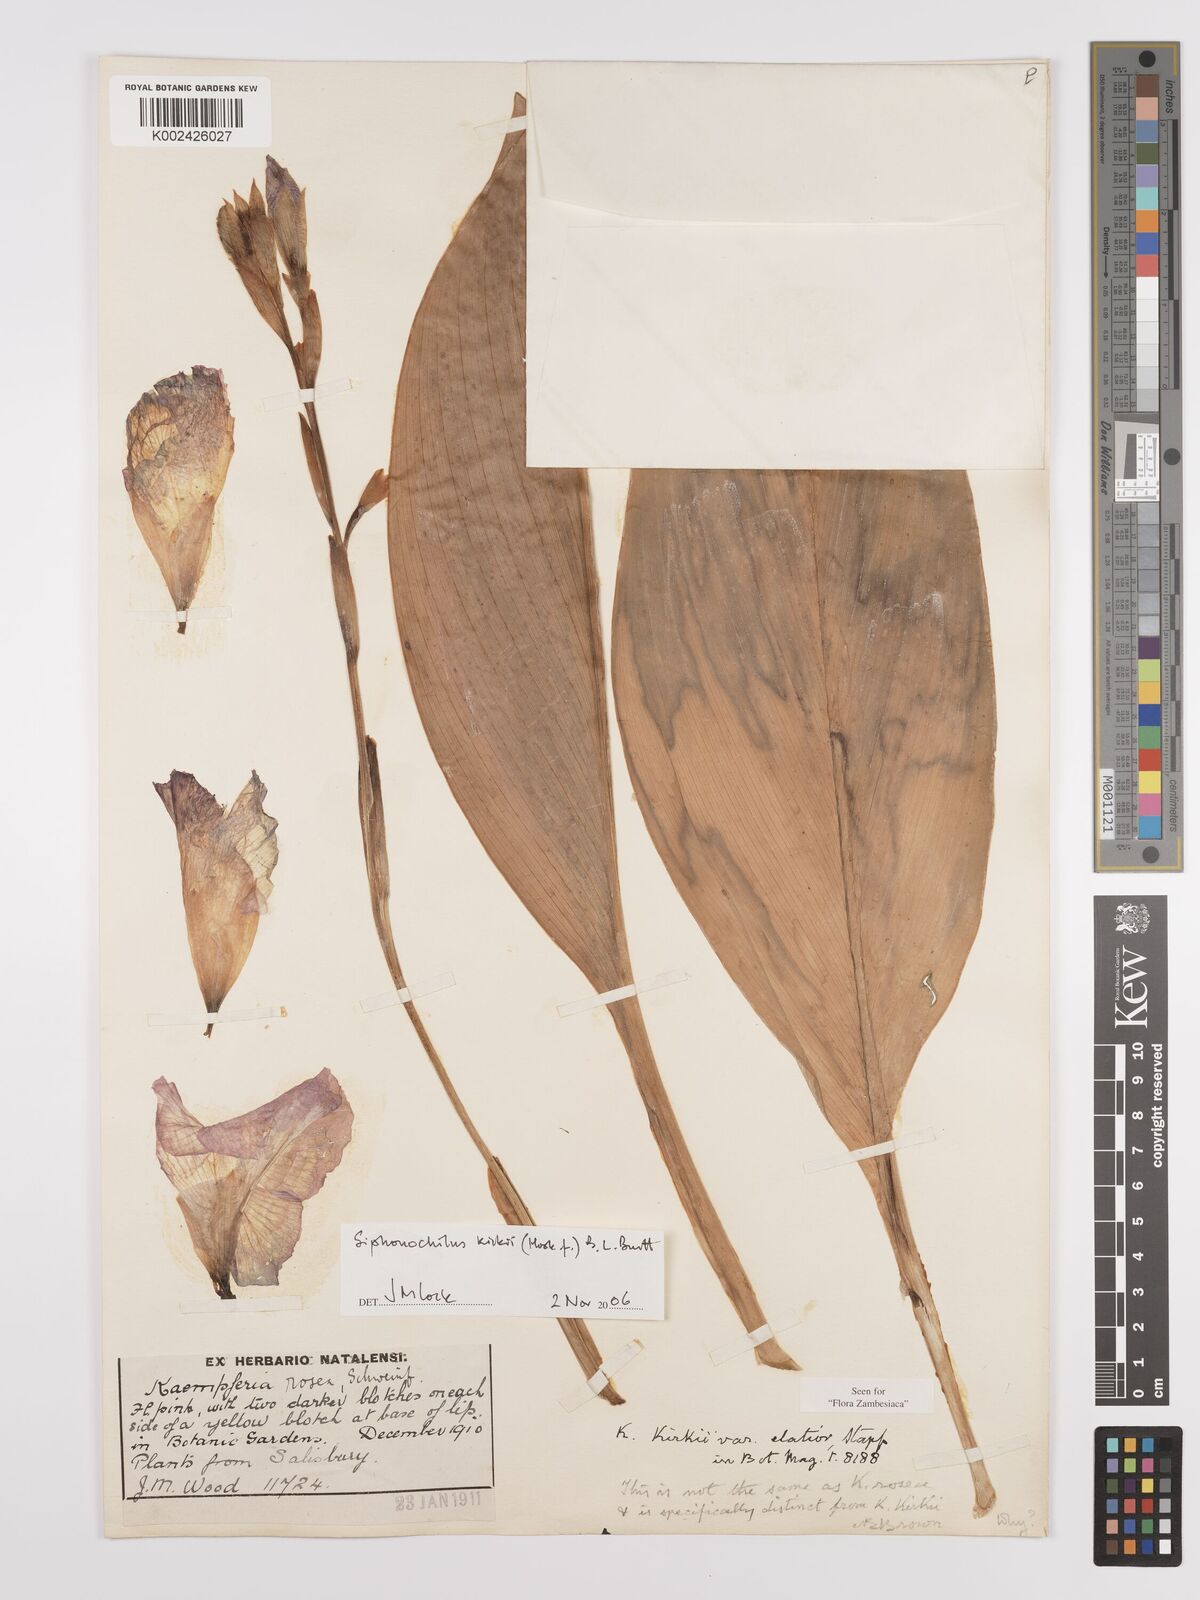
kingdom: Plantae
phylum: Tracheophyta
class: Liliopsida
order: Zingiberales
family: Zingiberaceae
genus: Siphonochilus
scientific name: Siphonochilus kirkii
